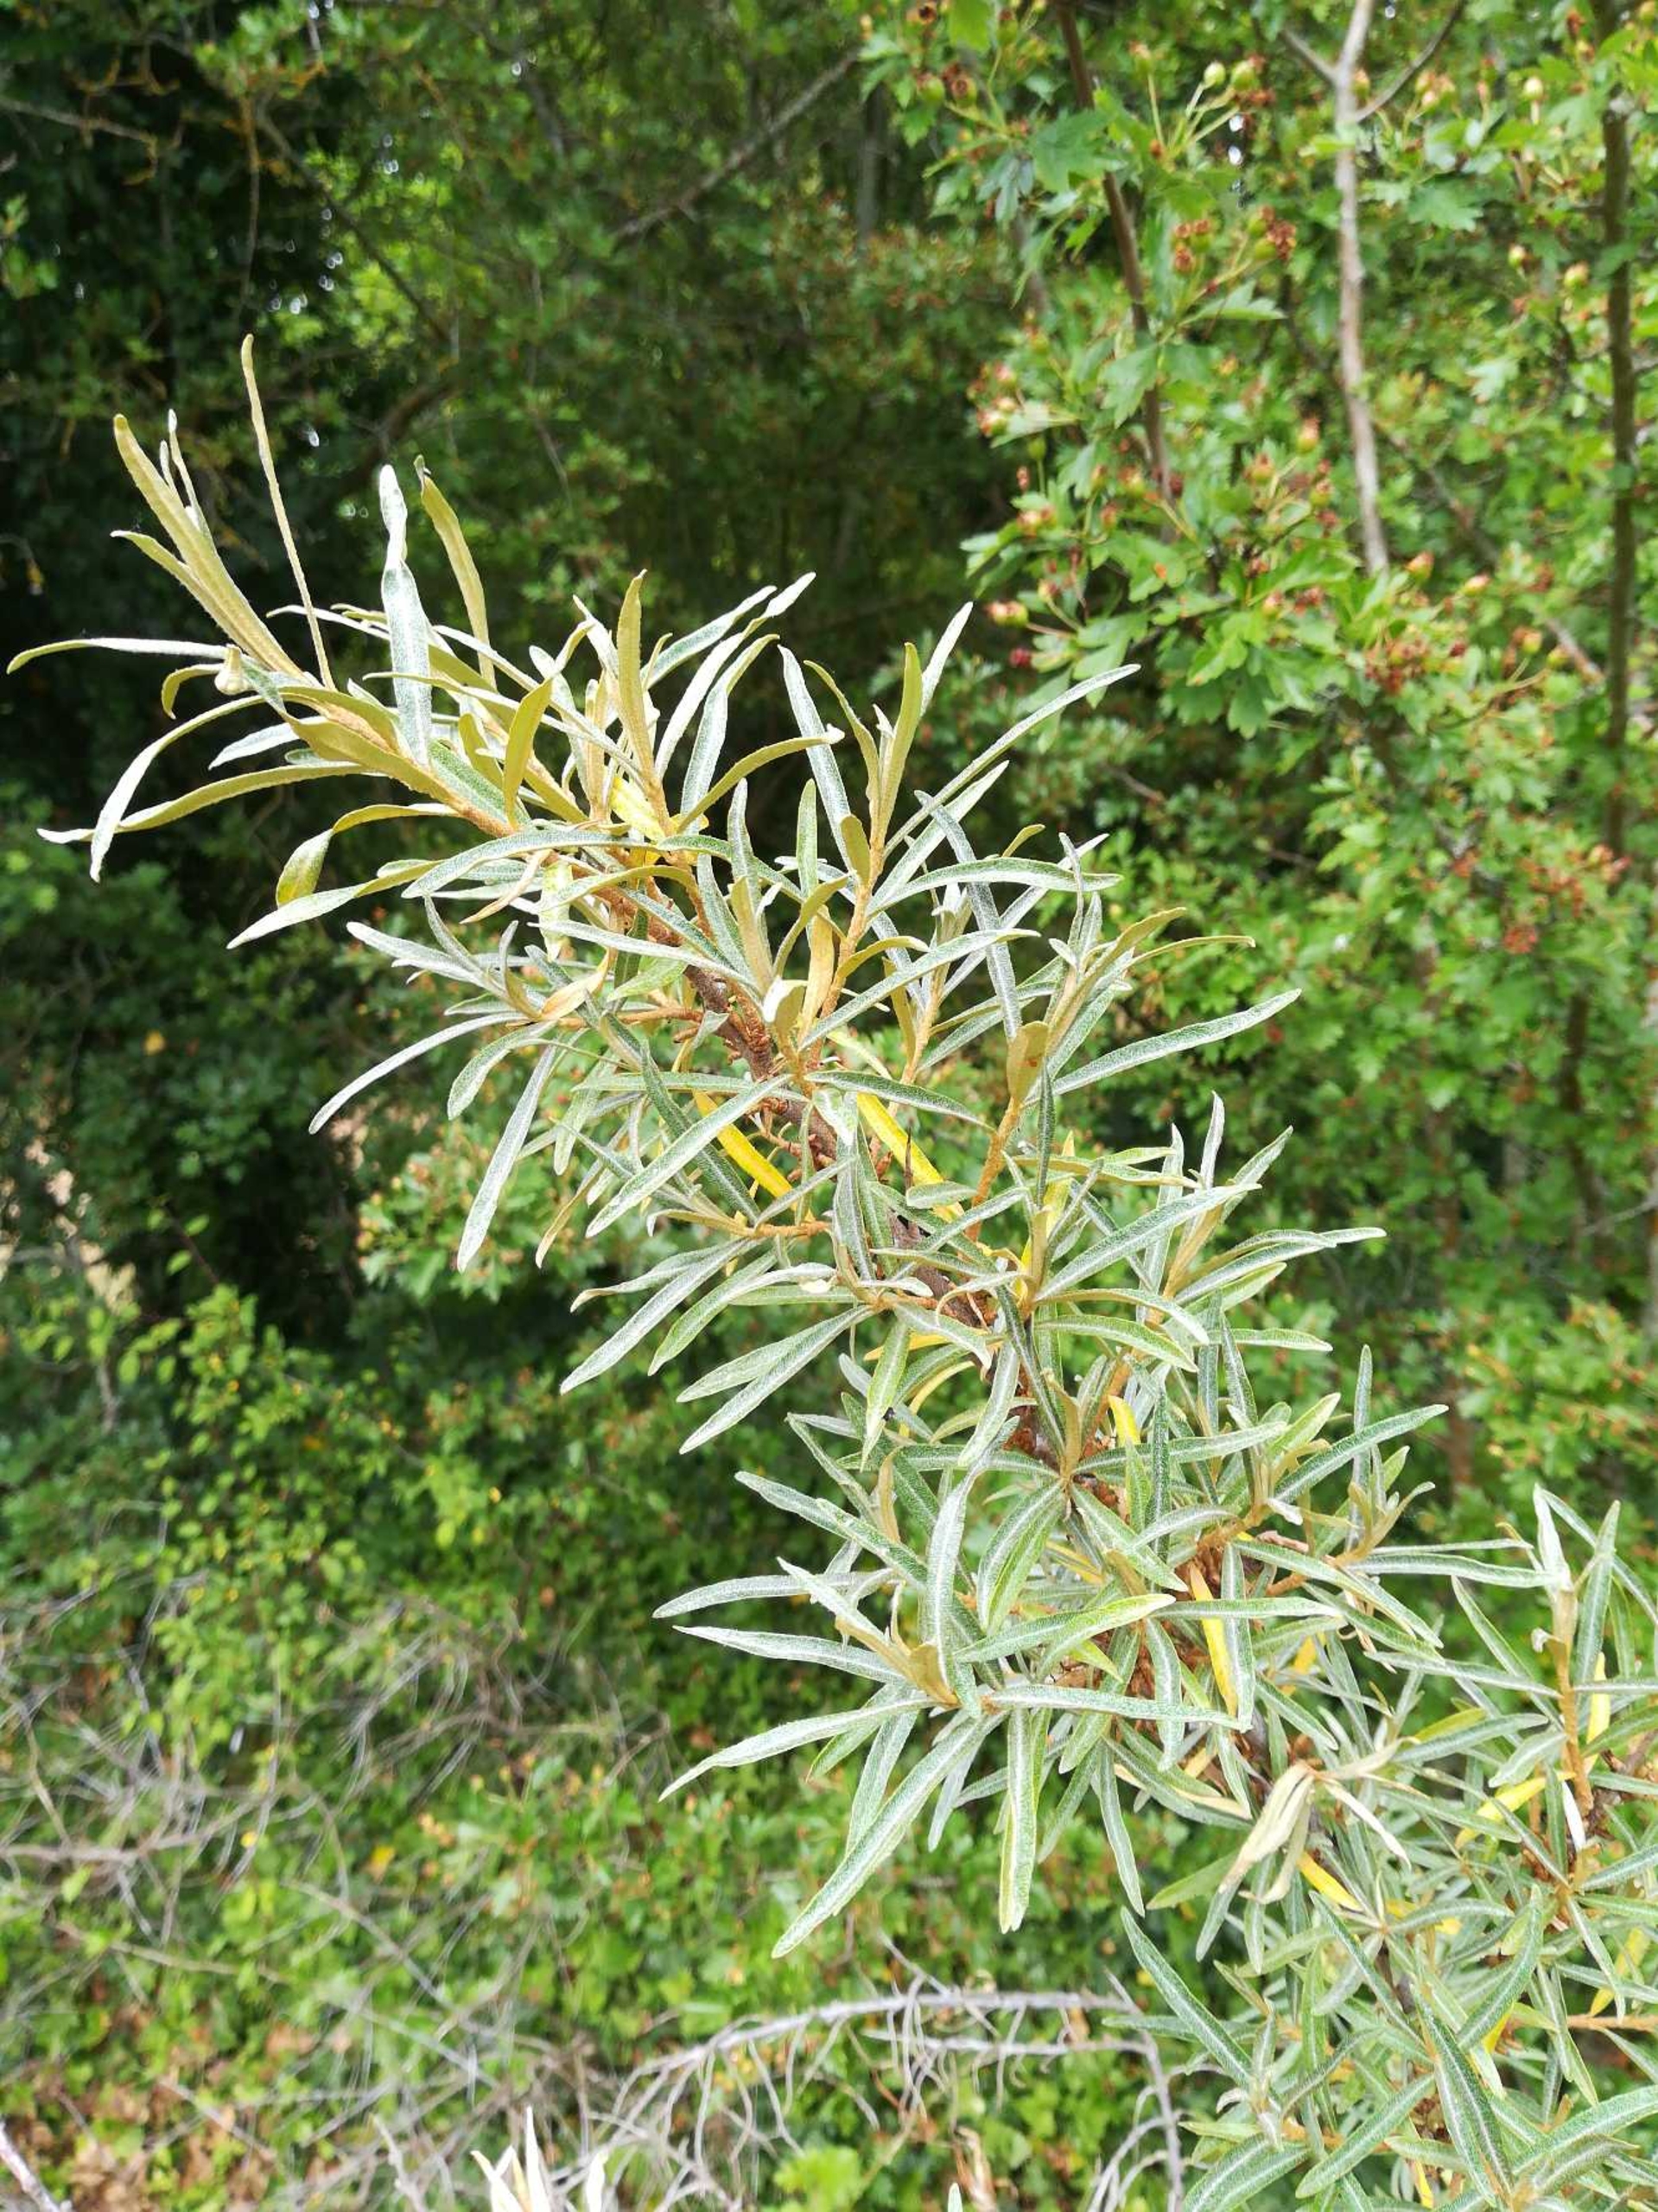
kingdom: Plantae
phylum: Tracheophyta
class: Magnoliopsida
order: Rosales
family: Elaeagnaceae
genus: Hippophae
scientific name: Hippophae rhamnoides
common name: Havtorn
